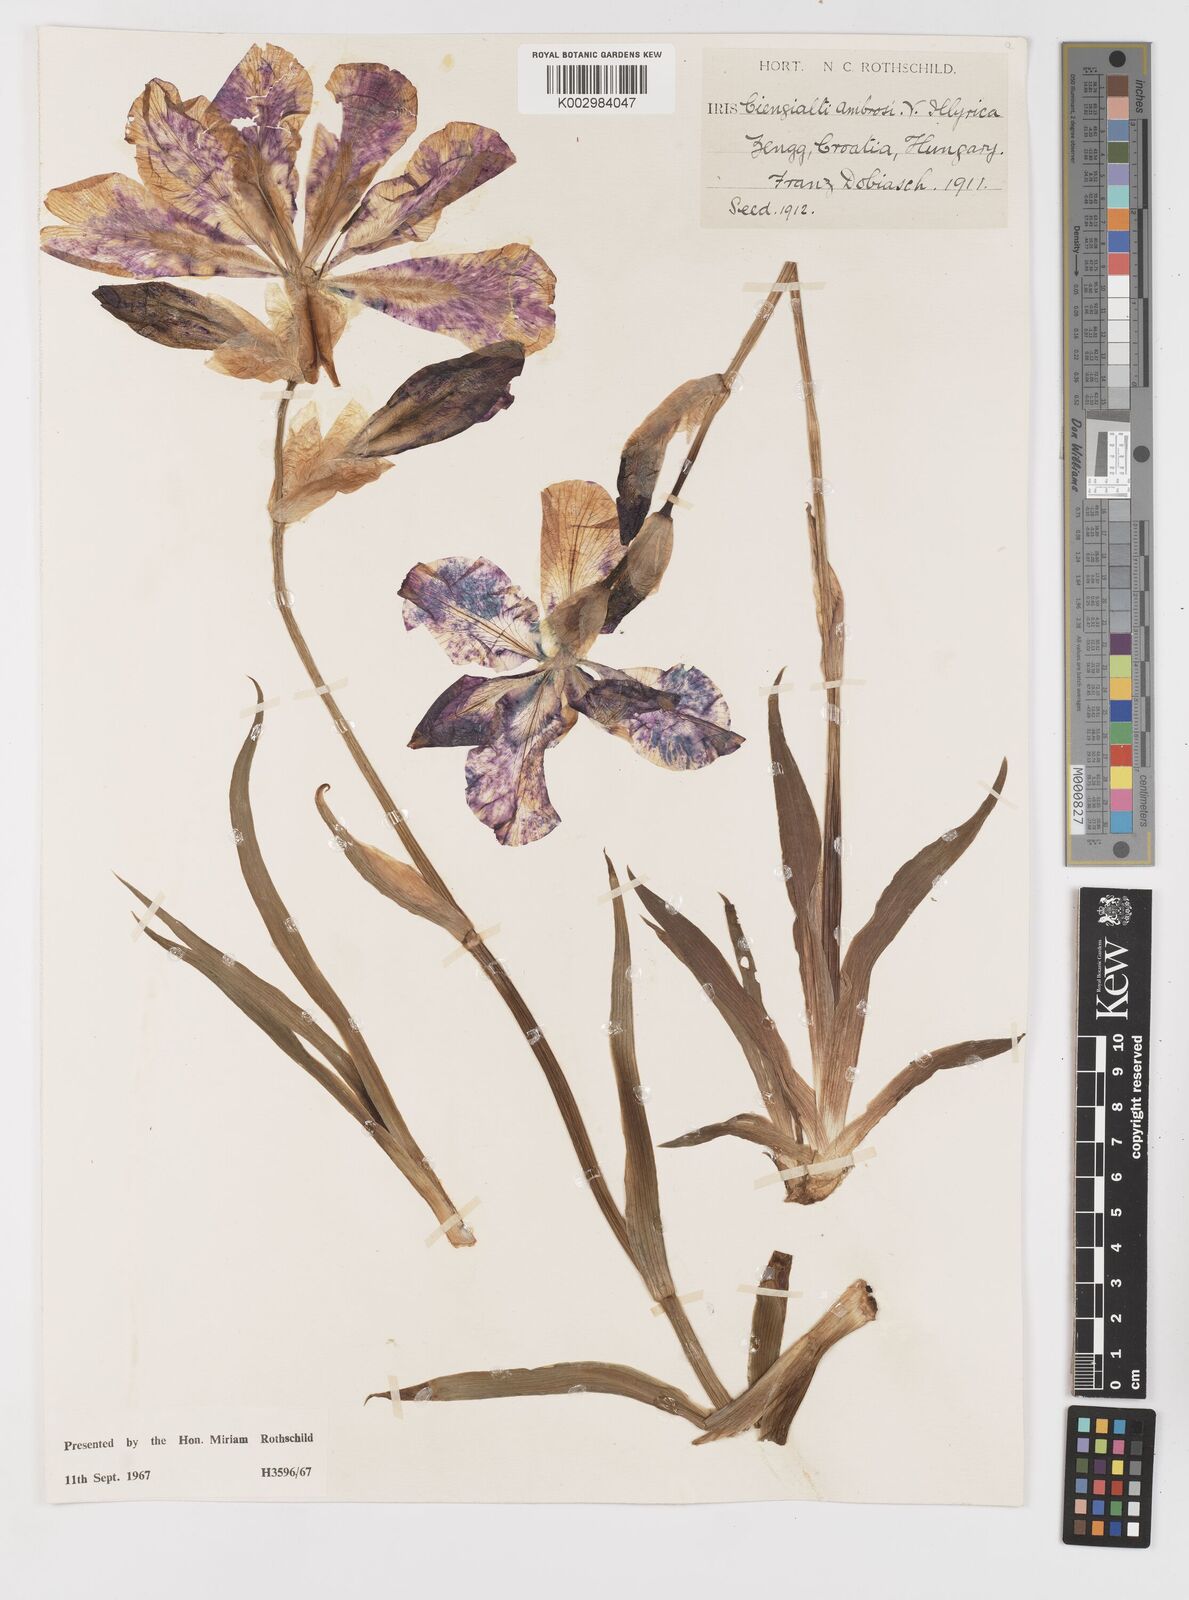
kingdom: Plantae
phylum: Tracheophyta
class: Liliopsida
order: Asparagales
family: Iridaceae
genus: Iris
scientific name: Iris pallida
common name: Sweet iris
